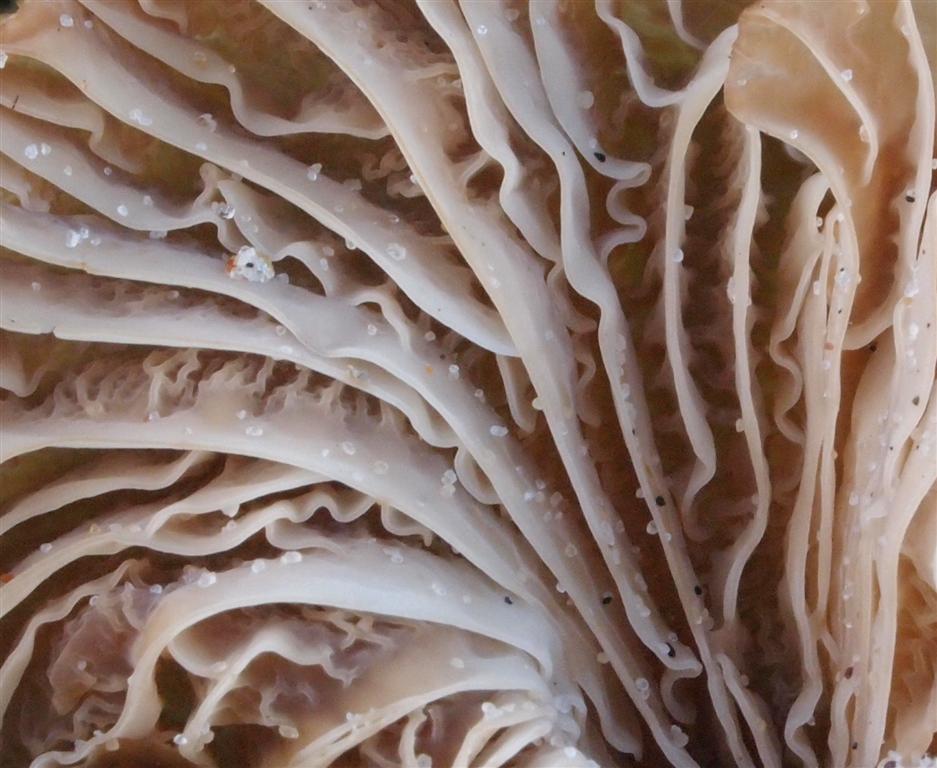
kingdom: Fungi
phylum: Basidiomycota
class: Agaricomycetes
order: Agaricales
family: Tricholomataceae
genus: Omphalina
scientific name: Omphalina pyxidata
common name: rødbrun navlehat
